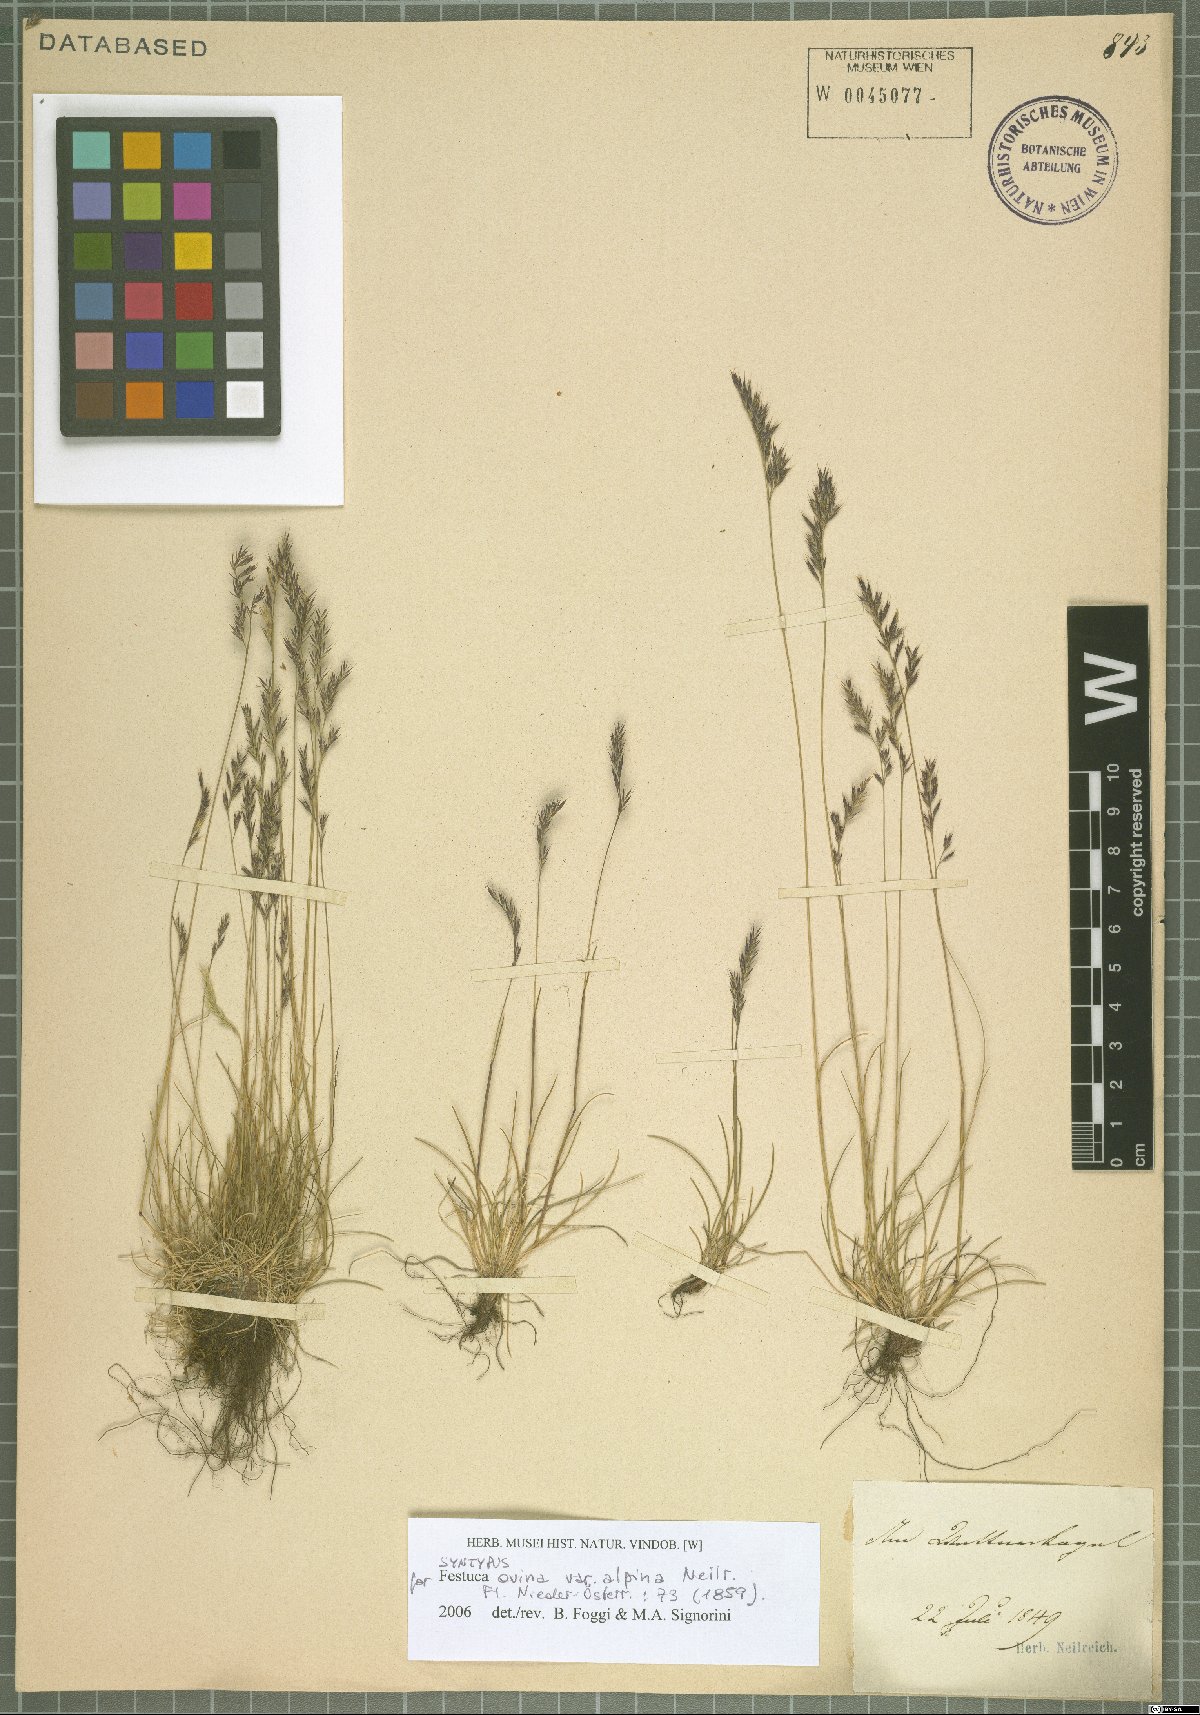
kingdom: Plantae
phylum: Tracheophyta
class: Liliopsida
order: Poales
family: Poaceae
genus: Festuca
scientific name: Festuca
